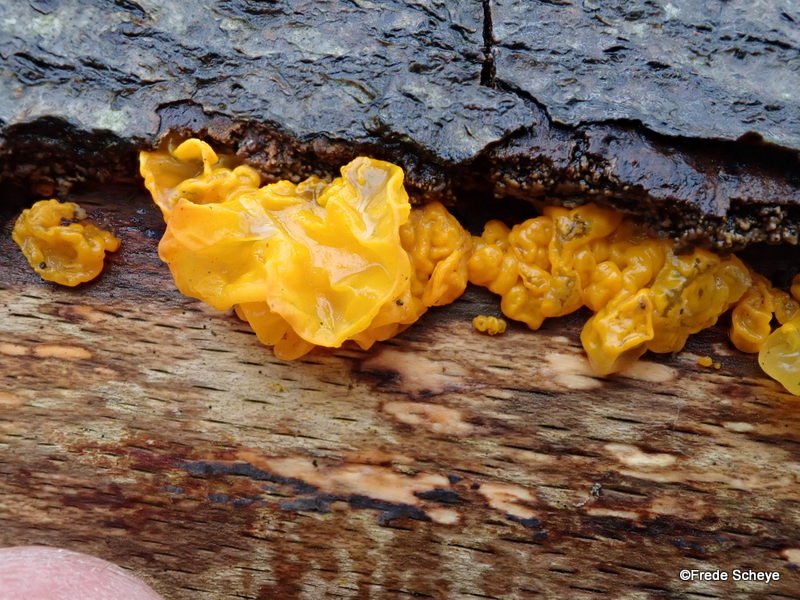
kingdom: Fungi
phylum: Basidiomycota
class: Tremellomycetes
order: Tremellales
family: Tremellaceae
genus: Tremella
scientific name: Tremella mesenterica
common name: gul bævresvamp
